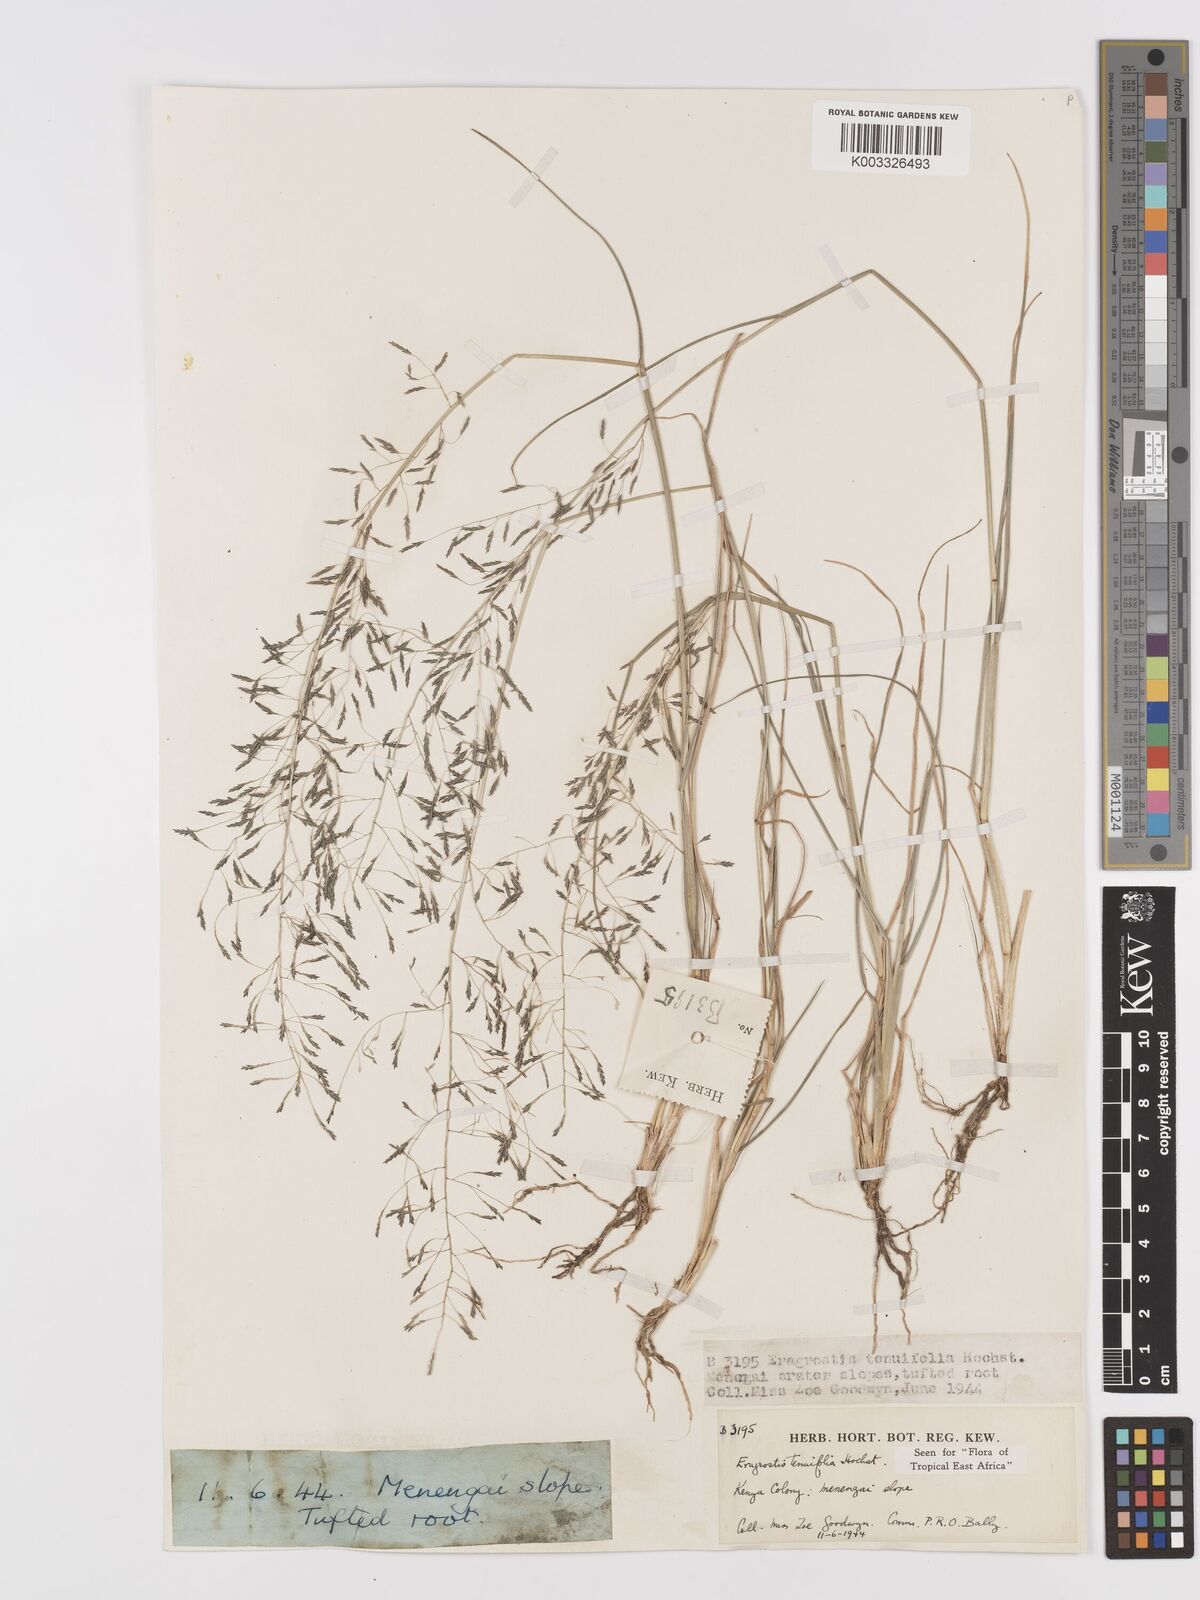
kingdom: Plantae
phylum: Tracheophyta
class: Liliopsida
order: Poales
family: Poaceae
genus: Eragrostis
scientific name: Eragrostis tenuifolia
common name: Elastic grass
